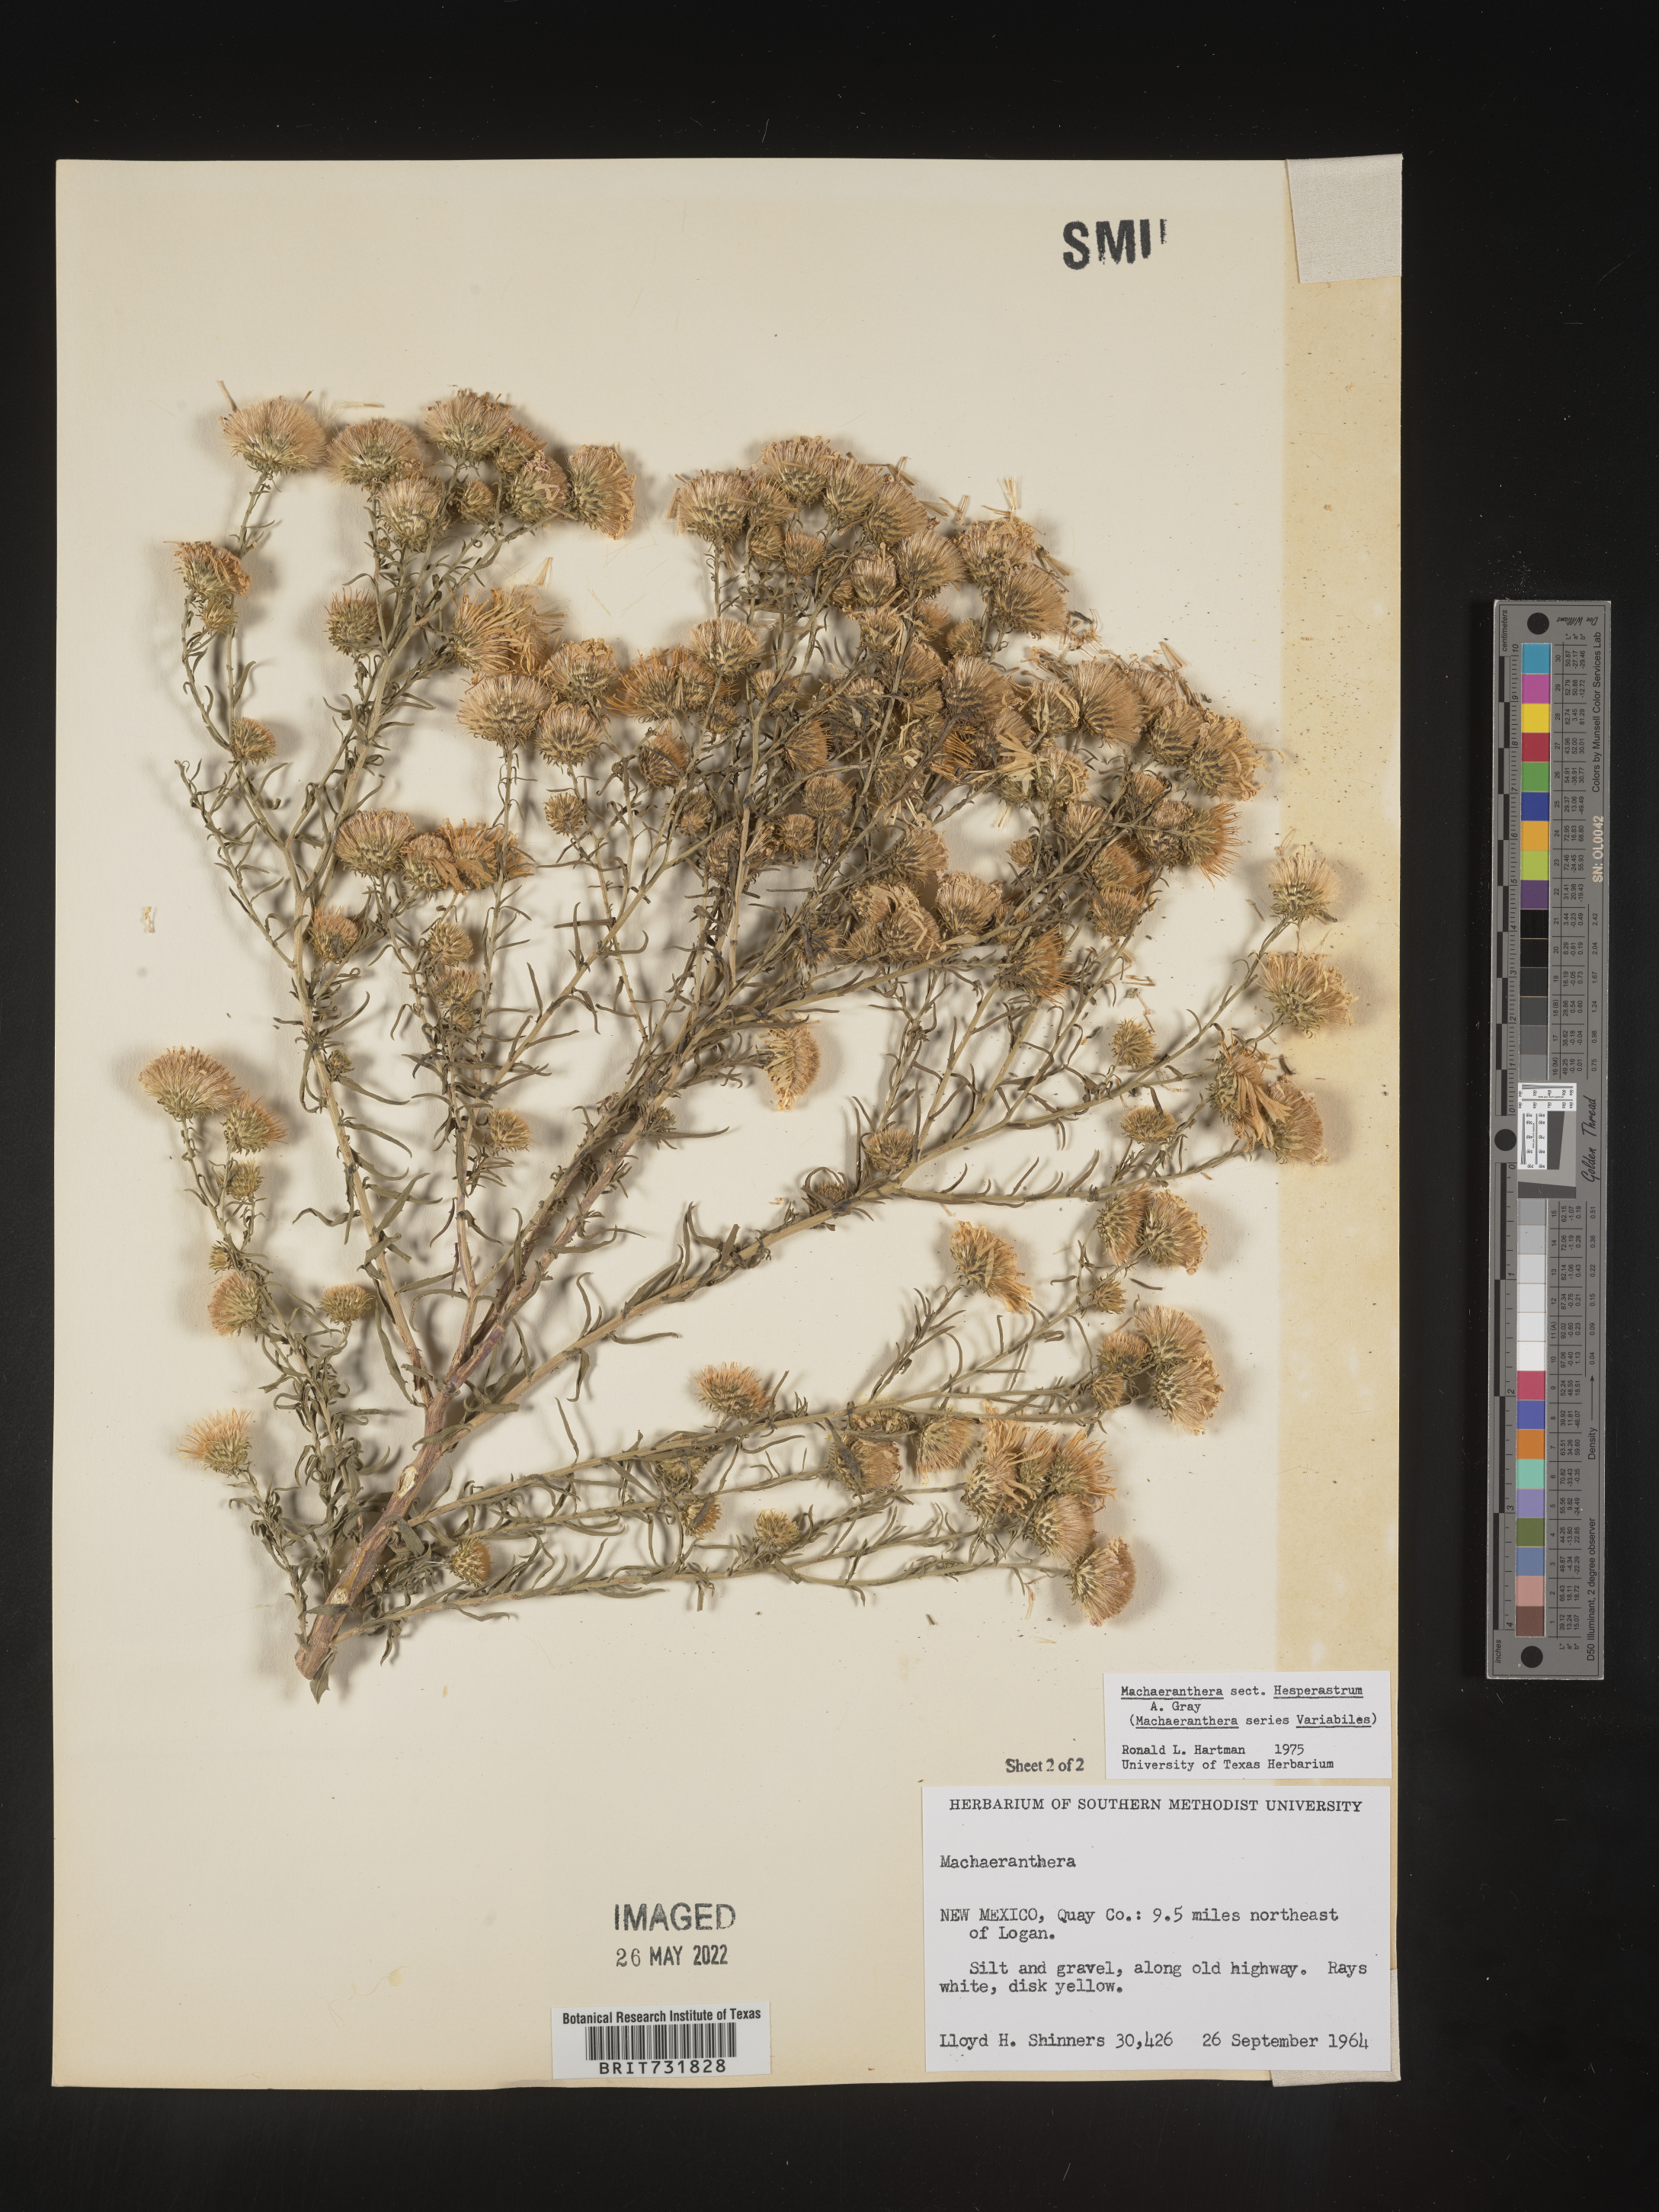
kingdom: Plantae
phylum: Tracheophyta
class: Magnoliopsida
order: Asterales
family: Asteraceae
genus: Machaeranthera
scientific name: Machaeranthera
